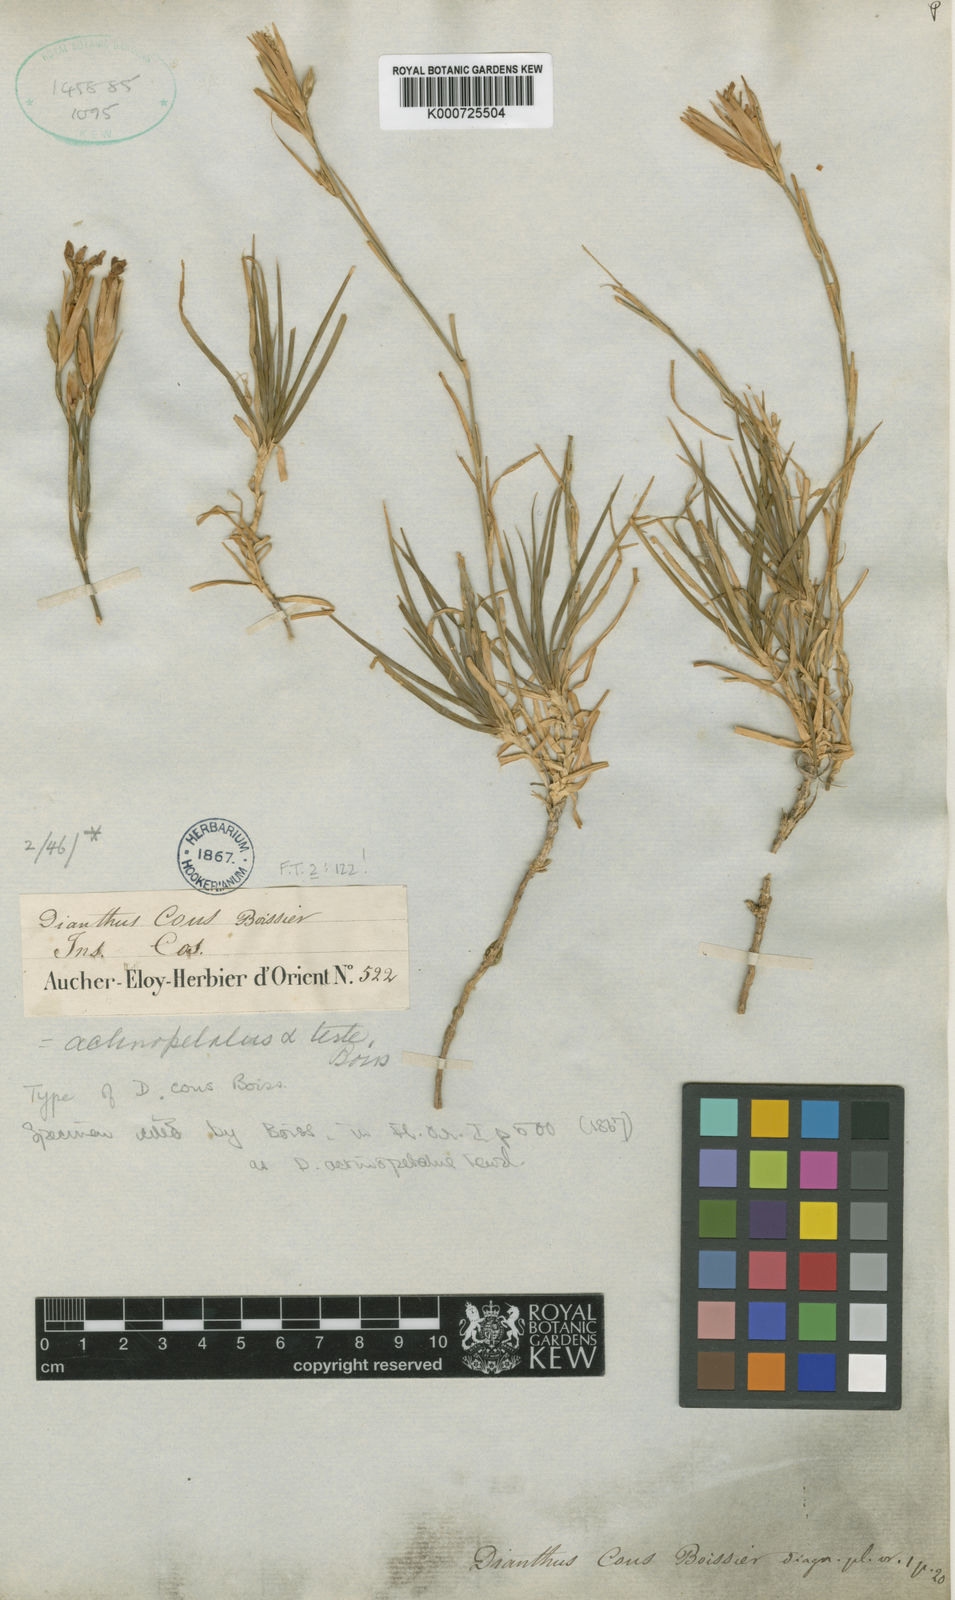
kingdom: Plantae
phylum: Tracheophyta
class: Magnoliopsida
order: Caryophyllales
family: Caryophyllaceae
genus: Dianthus
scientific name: Dianthus
